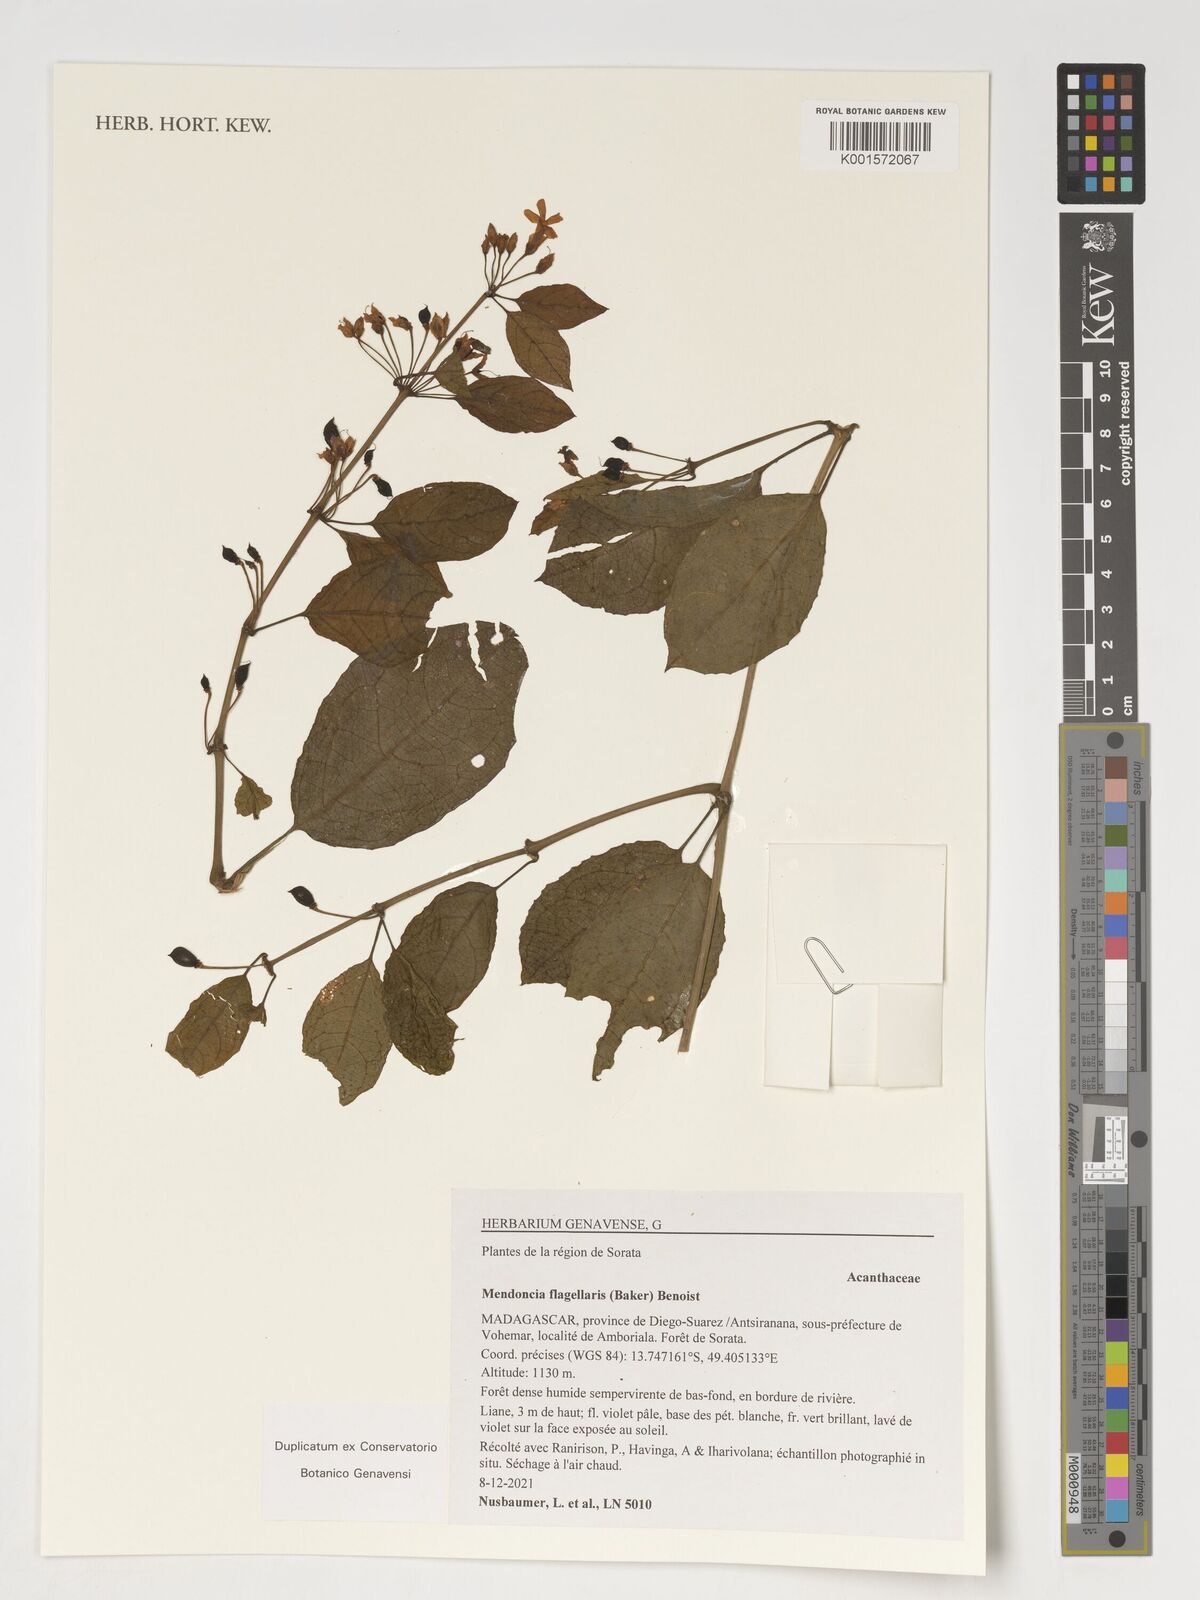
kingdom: Plantae
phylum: Tracheophyta
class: Magnoliopsida
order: Lamiales
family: Acanthaceae
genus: Mendoncia
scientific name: Mendoncia flagellaris
